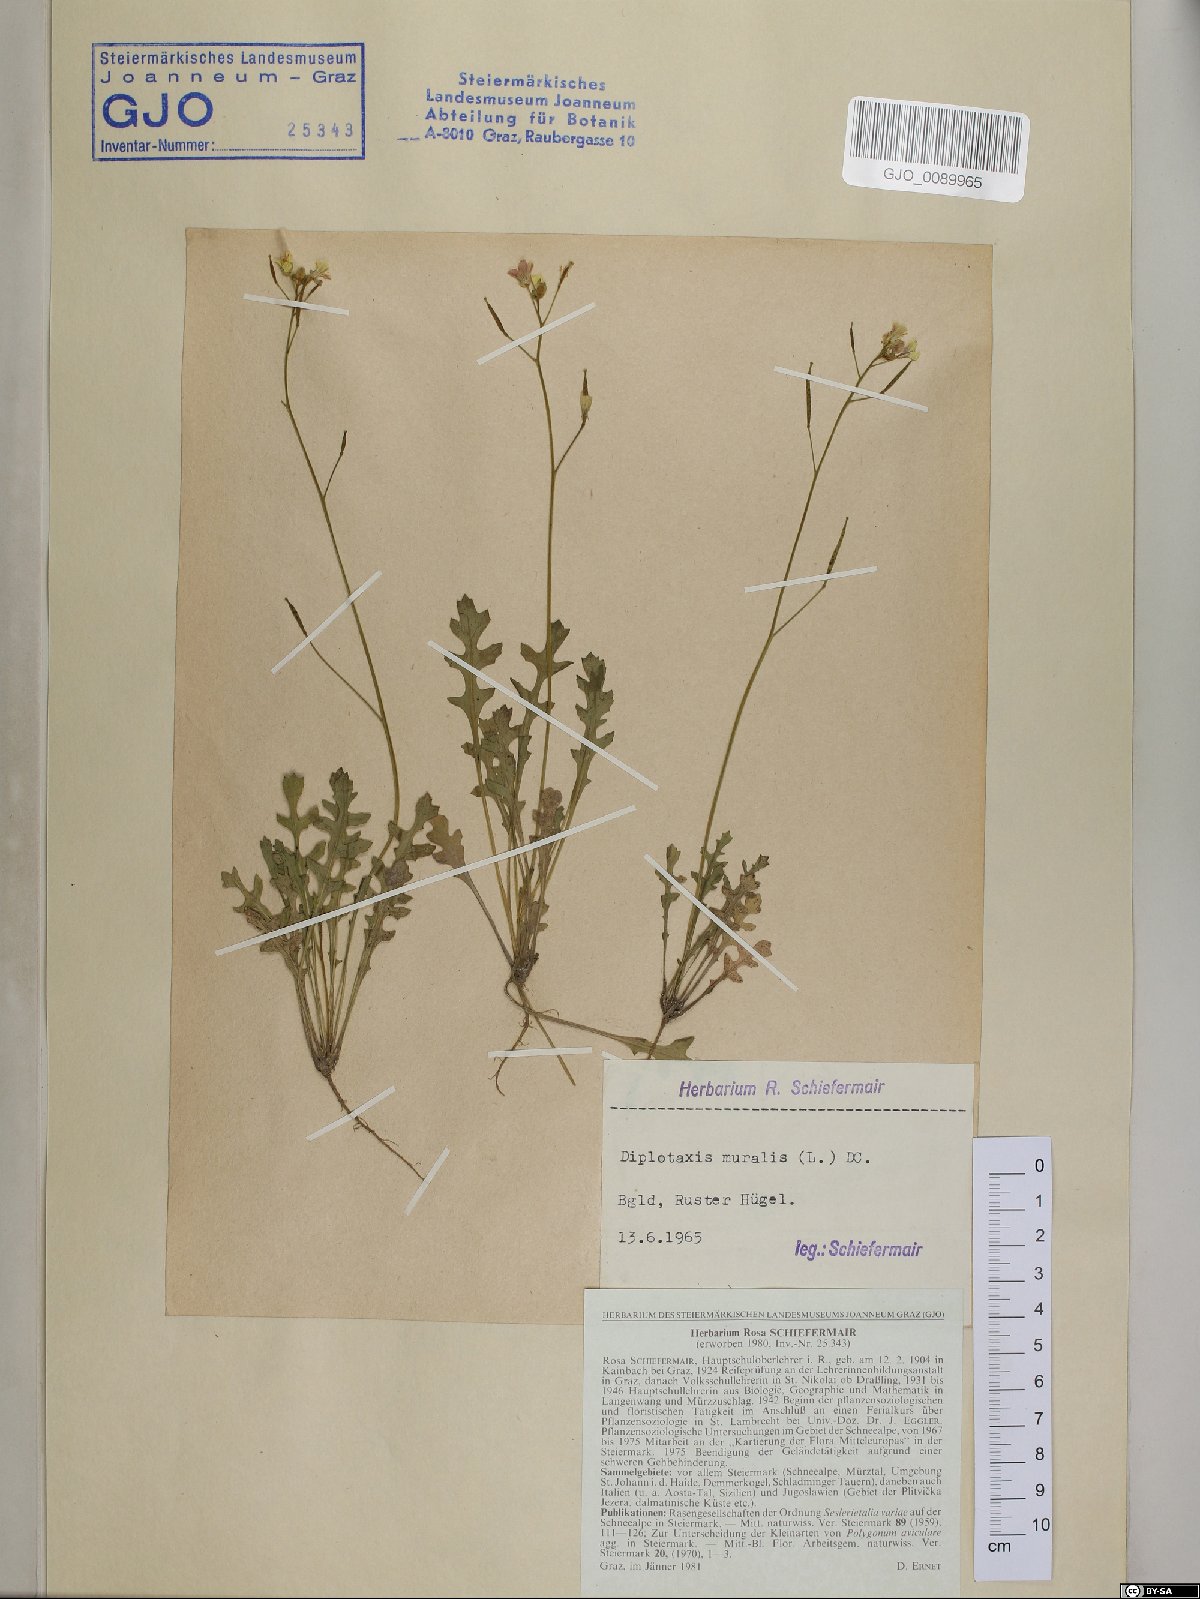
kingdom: Plantae
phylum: Tracheophyta
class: Magnoliopsida
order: Brassicales
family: Brassicaceae
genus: Diplotaxis
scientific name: Diplotaxis muralis
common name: Annual wall-rocket
